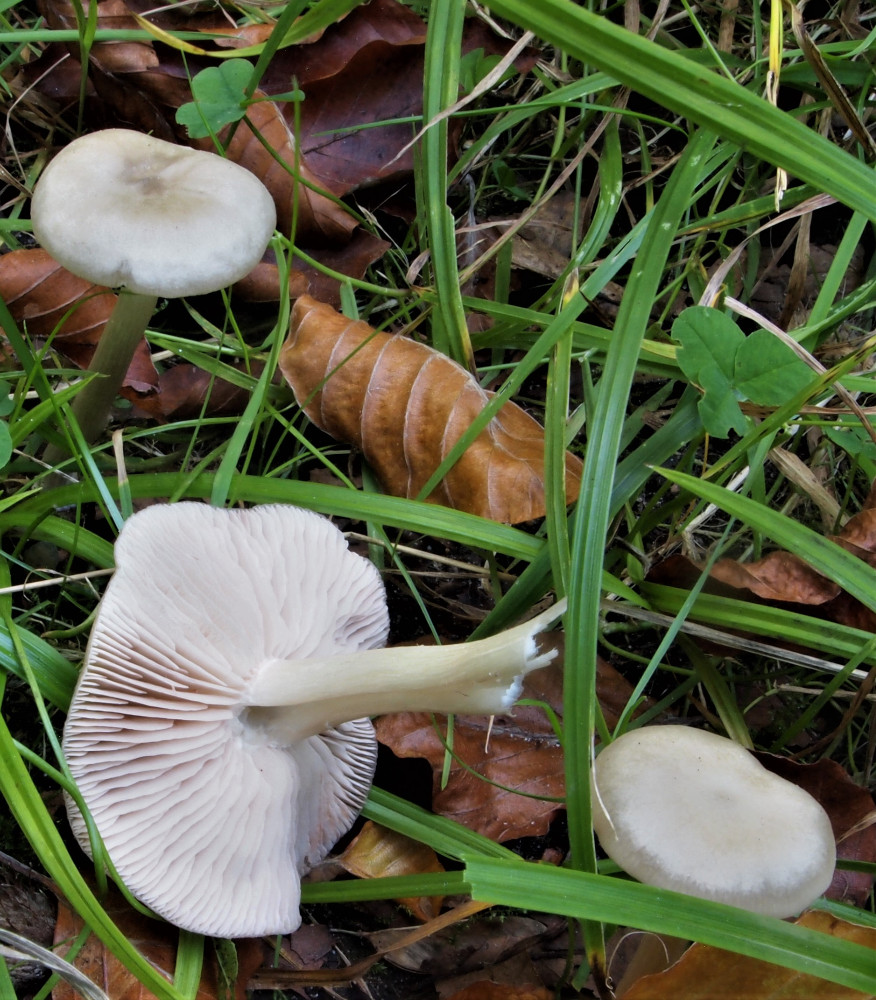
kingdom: Fungi
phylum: Basidiomycota
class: Agaricomycetes
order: Agaricales
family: Entolomataceae
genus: Entoloma
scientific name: Entoloma
